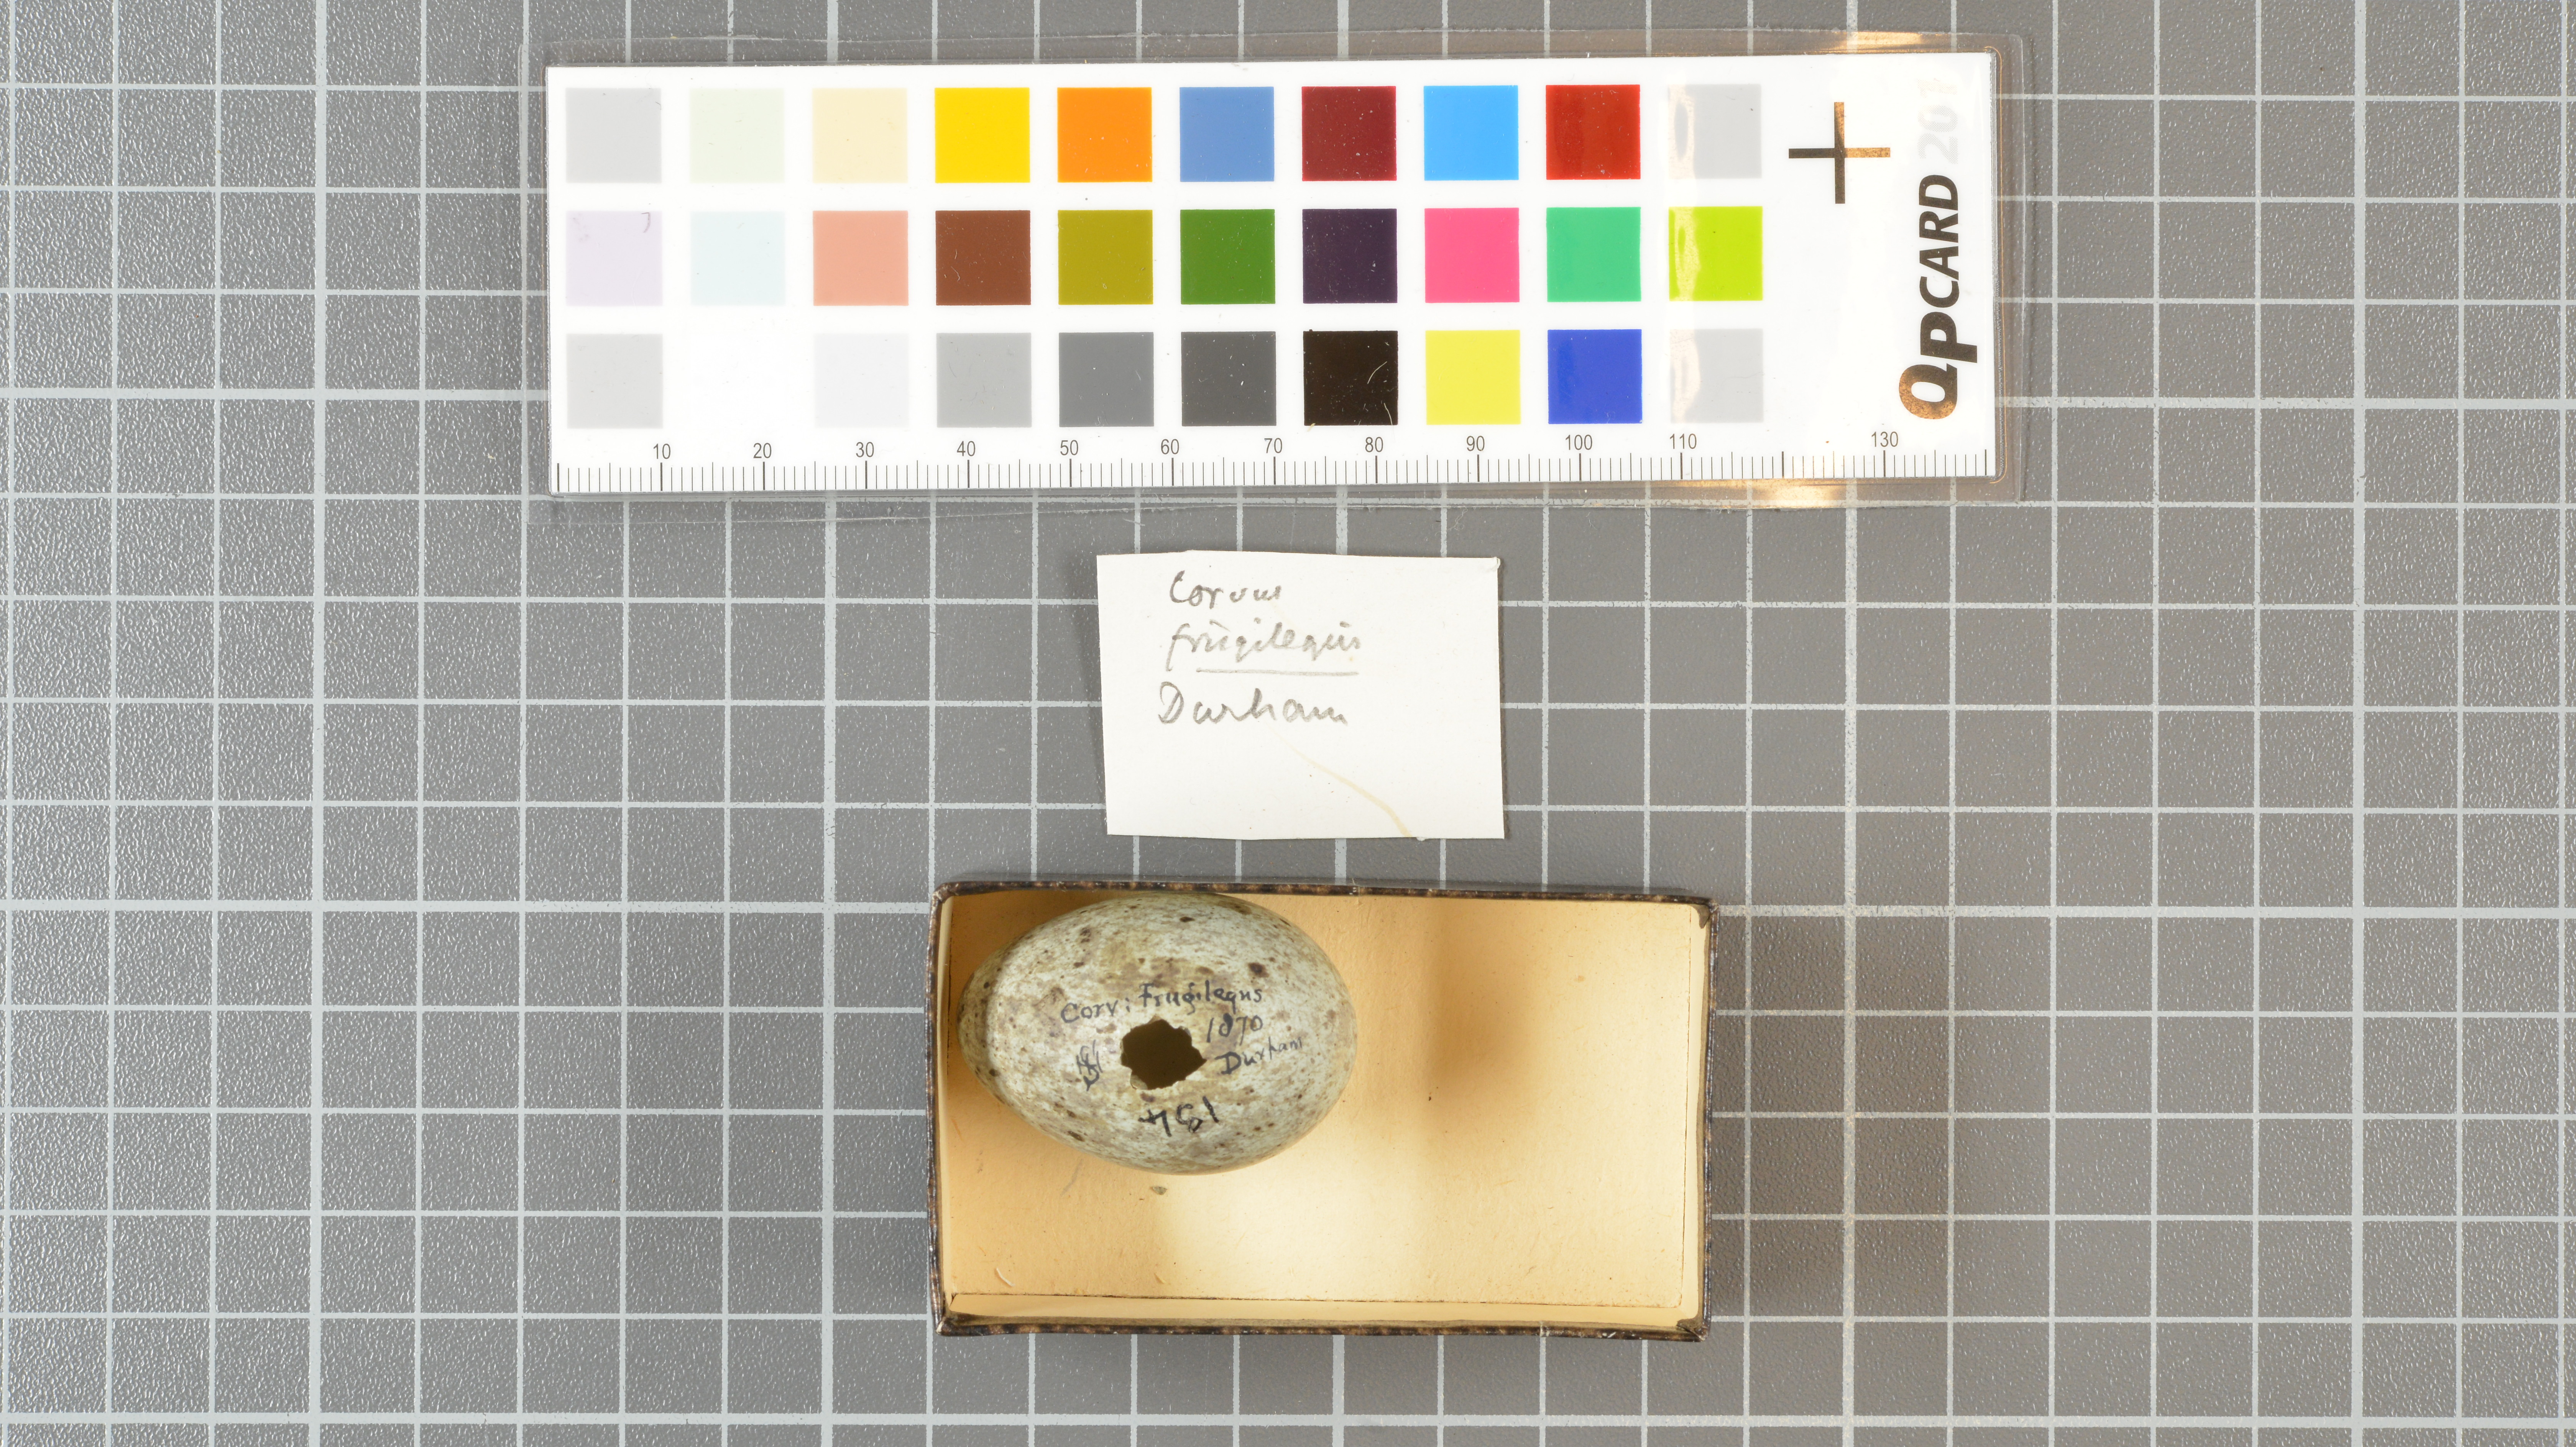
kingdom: Animalia
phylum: Chordata
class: Aves
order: Passeriformes
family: Corvidae
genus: Corvus
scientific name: Corvus frugilegus
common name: Rook
